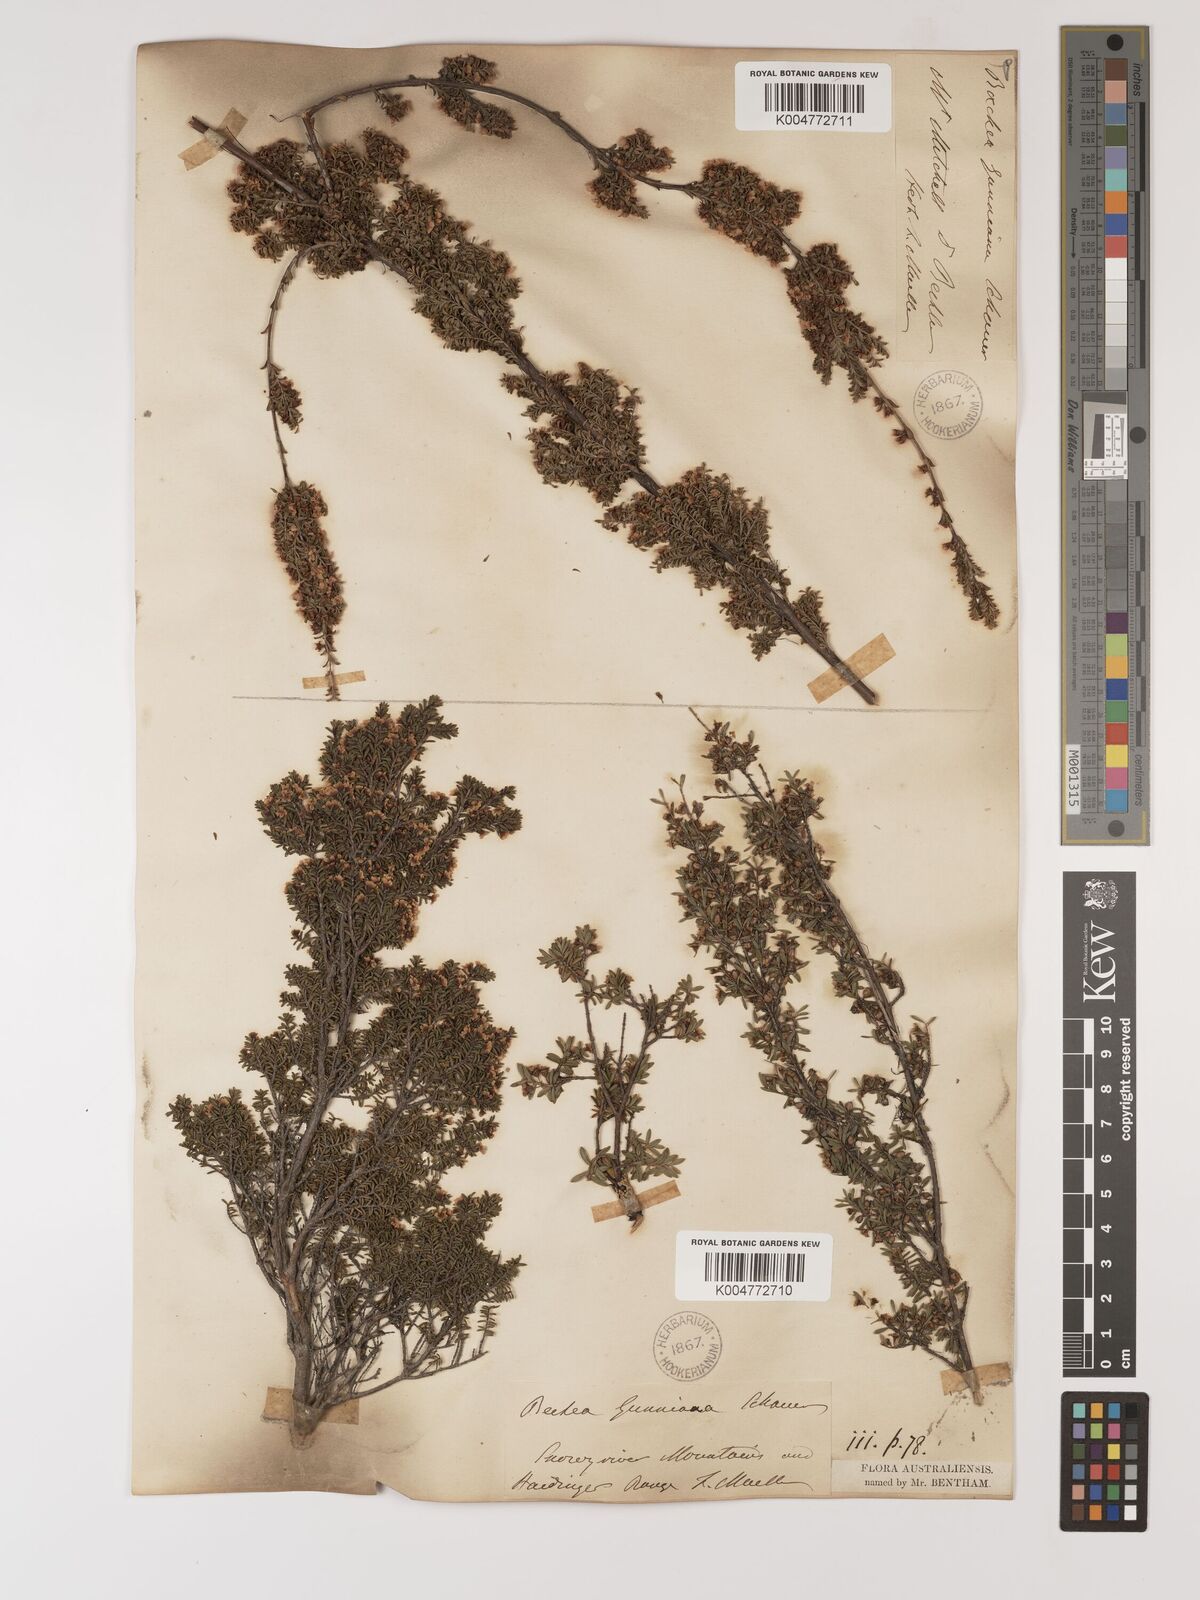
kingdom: Plantae
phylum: Tracheophyta
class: Magnoliopsida
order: Myrtales
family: Myrtaceae
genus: Baeckea
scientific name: Baeckea gunniana
